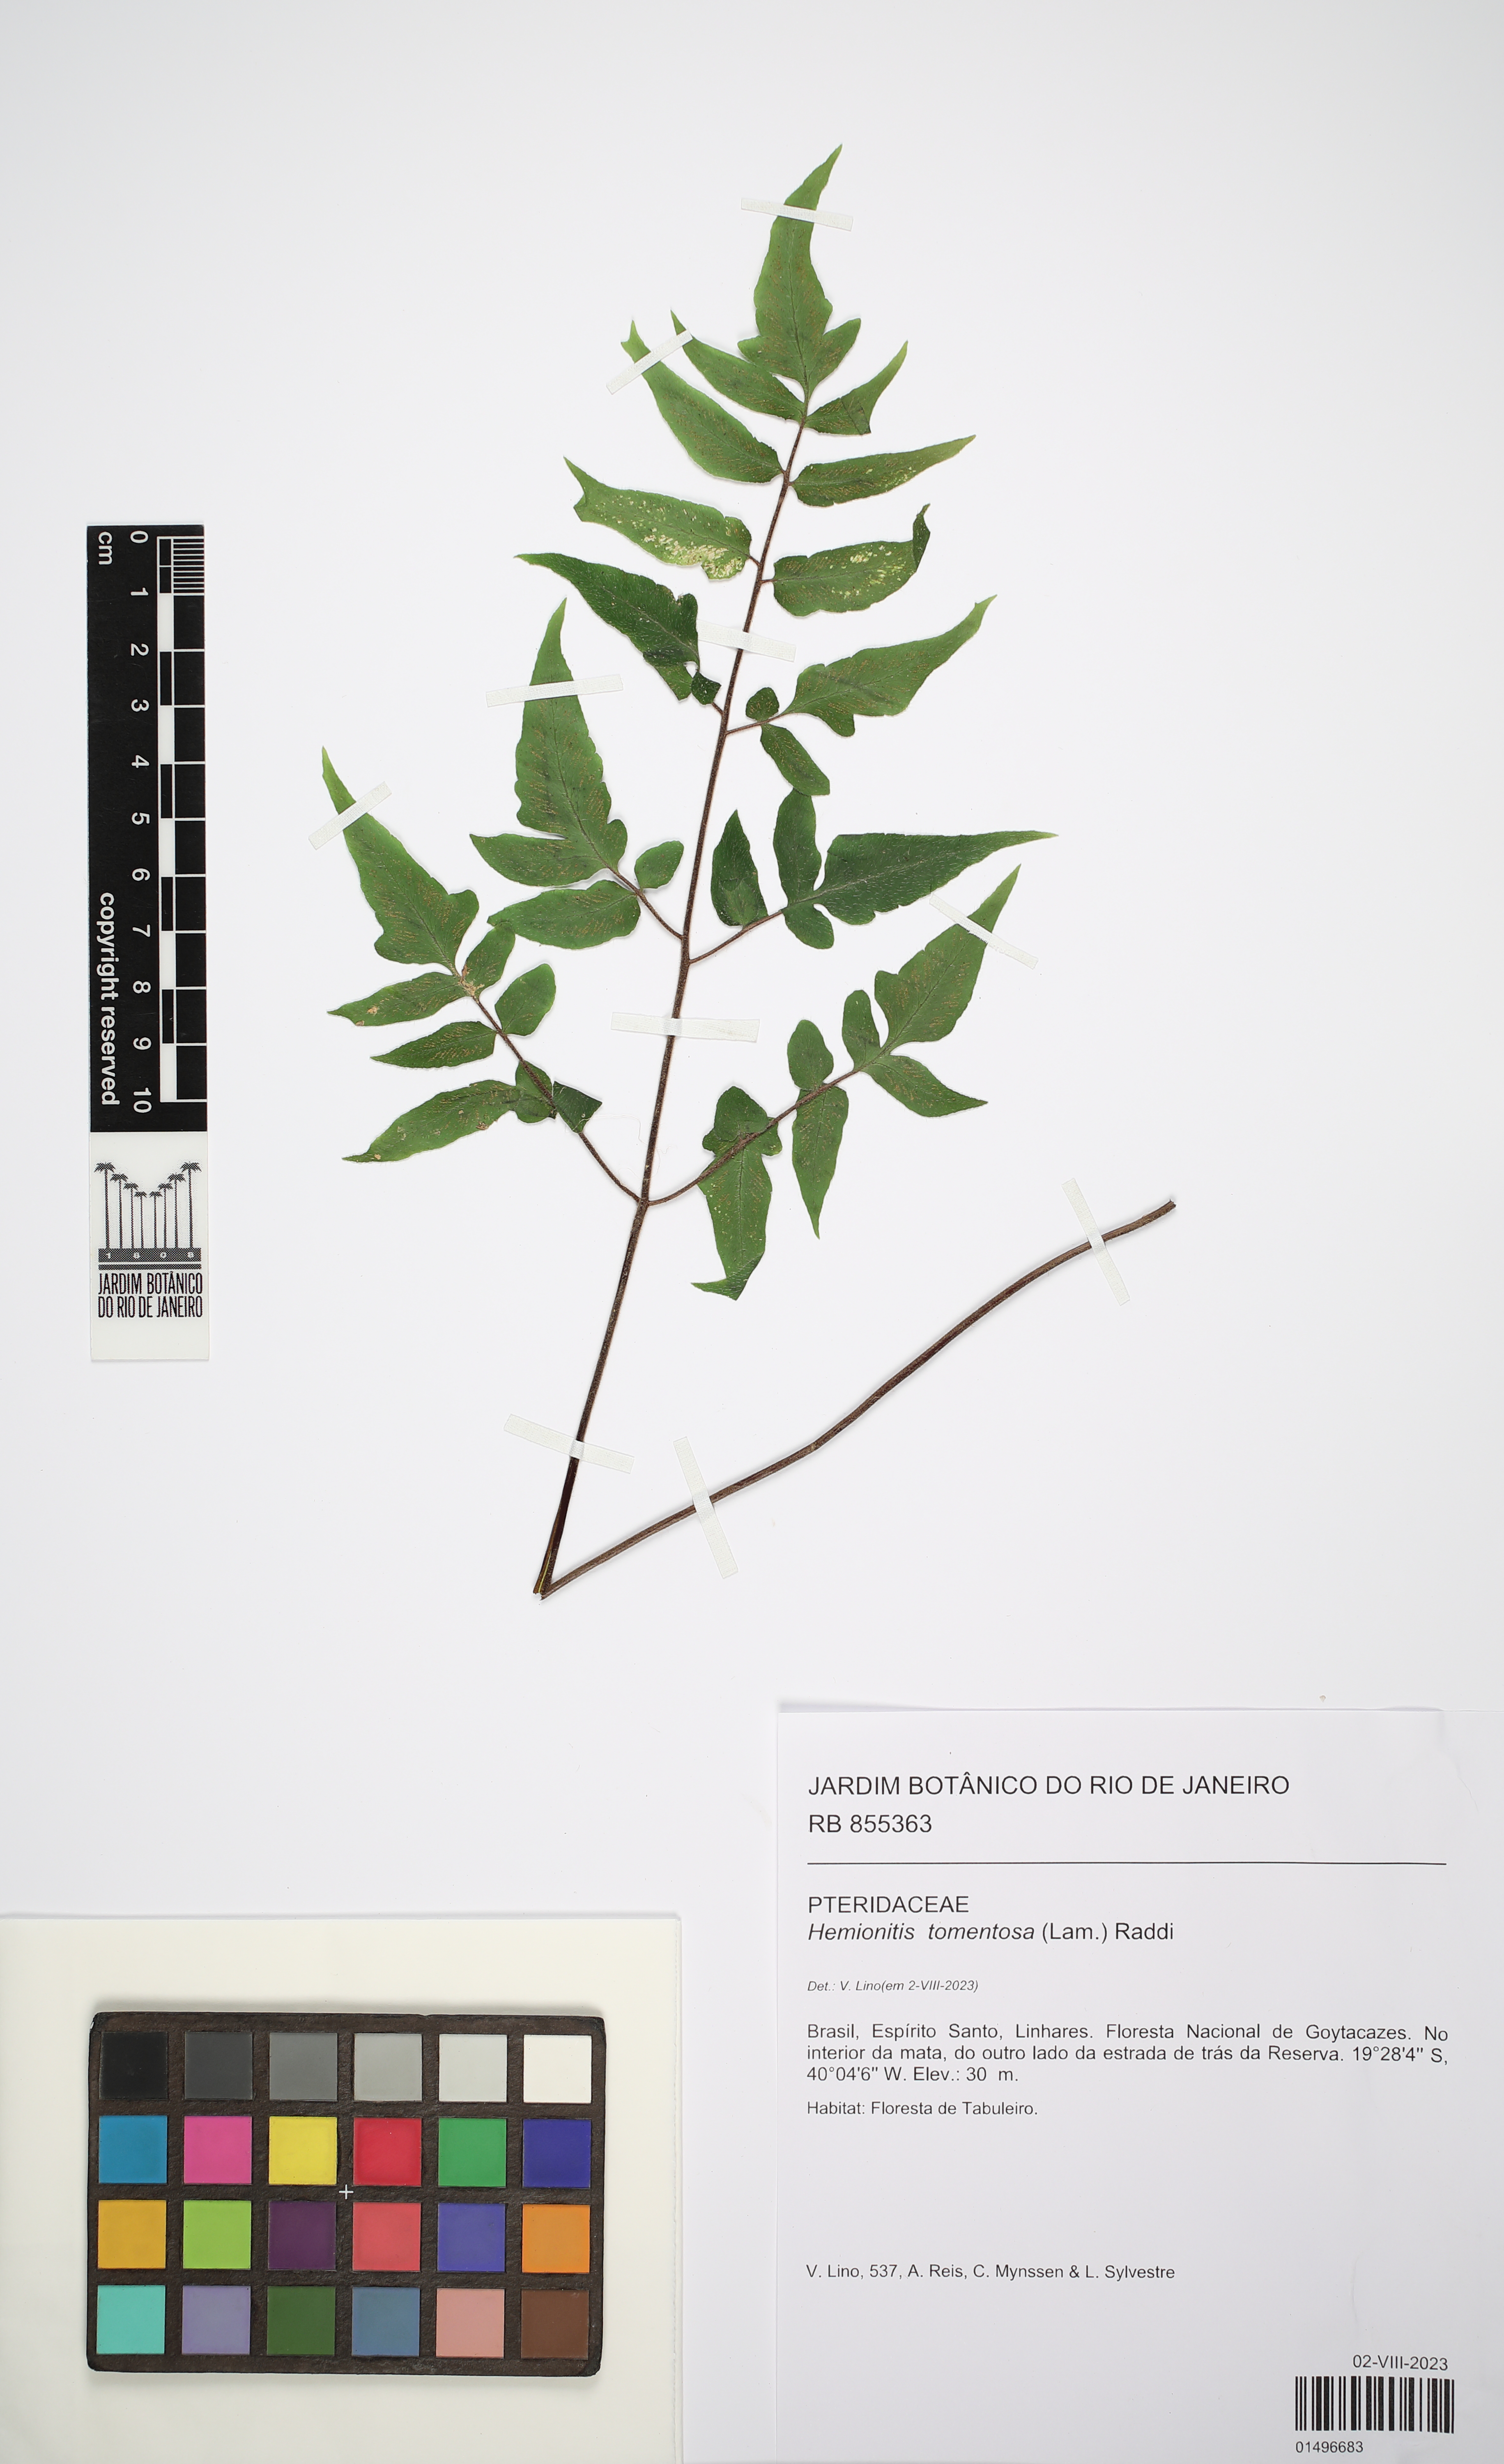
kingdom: Plantae
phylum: Tracheophyta
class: Polypodiopsida
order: Polypodiales
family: Pteridaceae
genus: Hemionitis
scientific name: Hemionitis tomentosa
